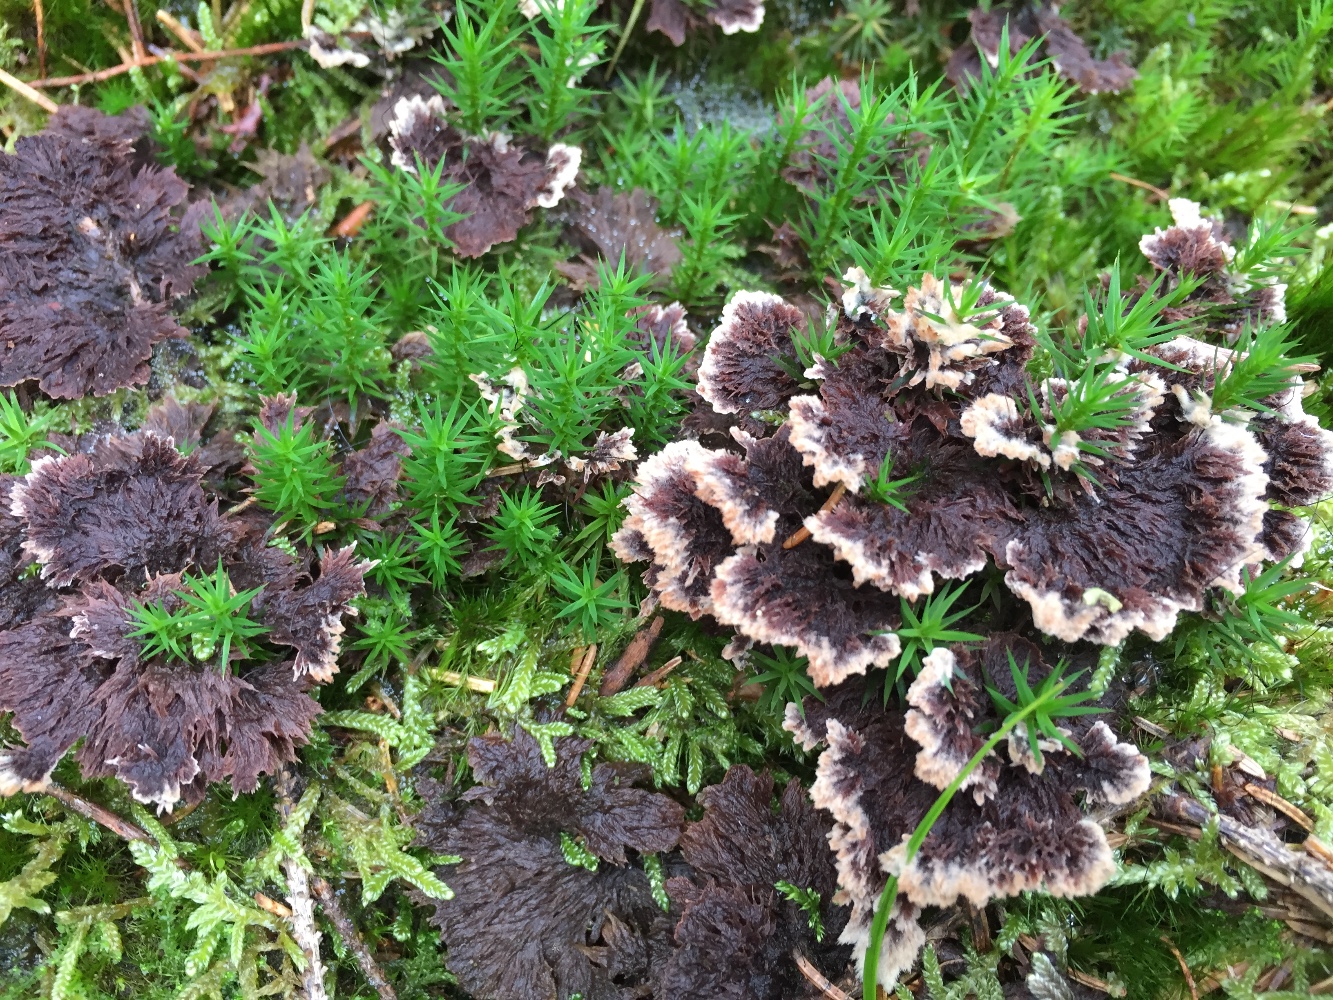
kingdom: Fungi
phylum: Basidiomycota
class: Agaricomycetes
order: Thelephorales
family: Thelephoraceae
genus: Thelephora
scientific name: Thelephora terrestris
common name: fliget frynsesvamp
